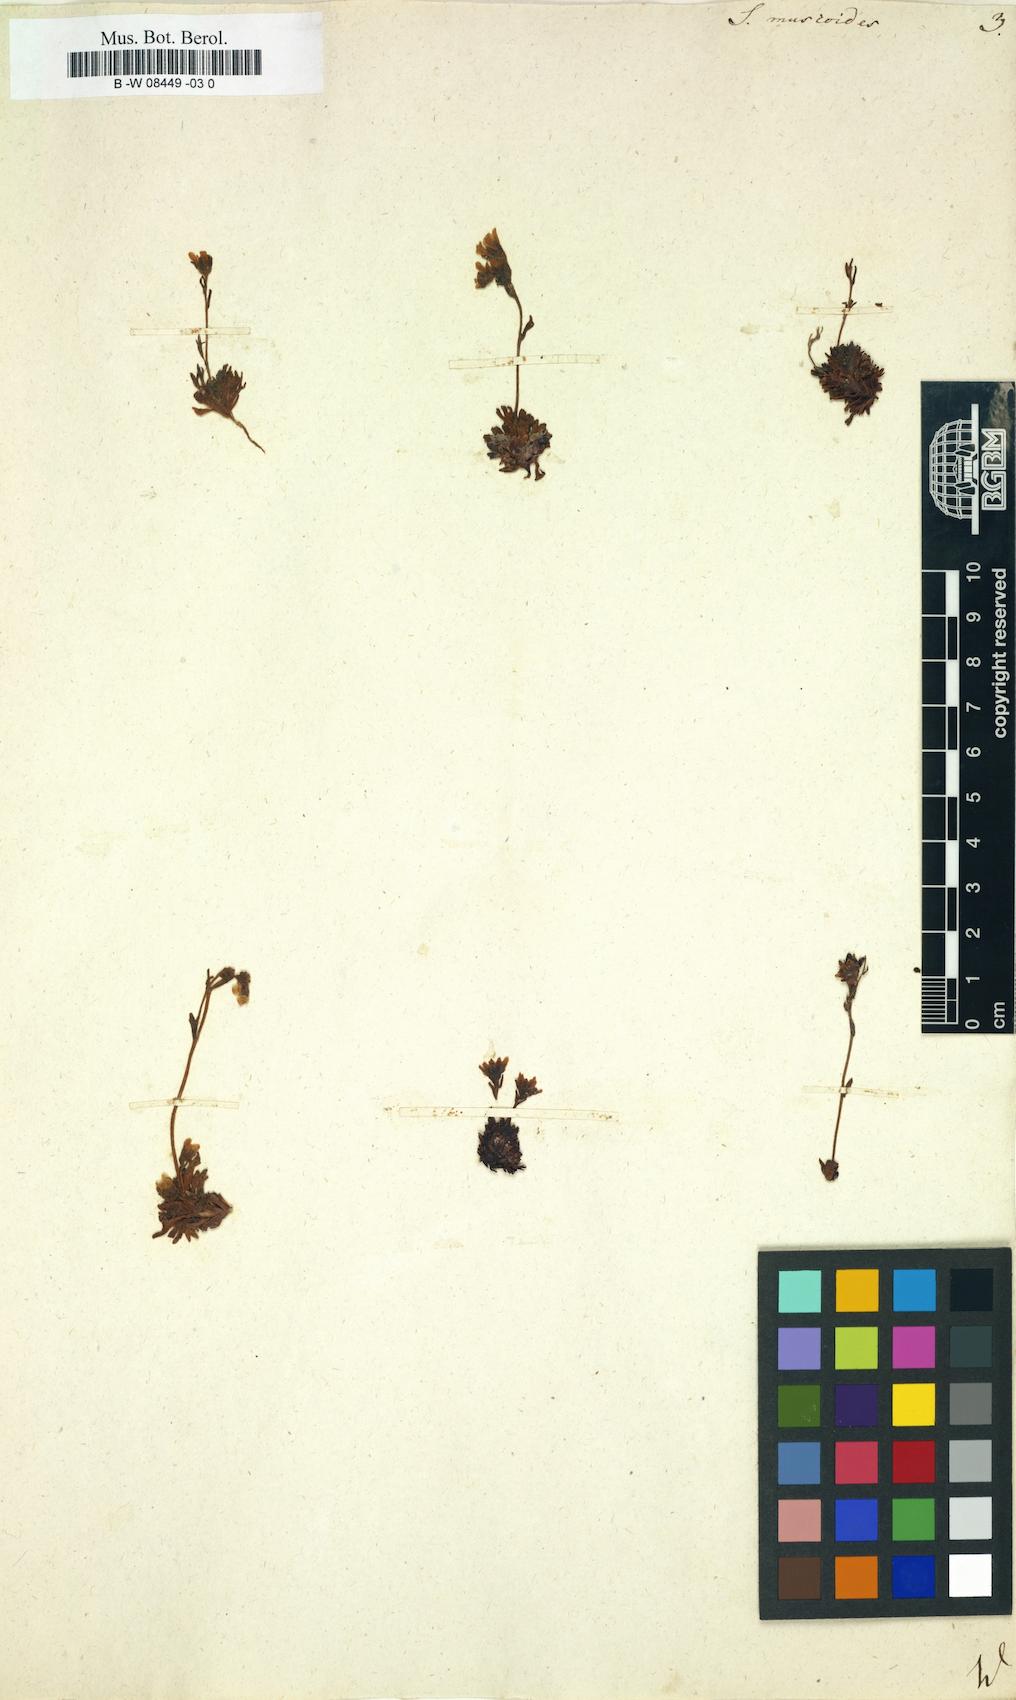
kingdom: Plantae
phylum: Tracheophyta
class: Magnoliopsida
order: Saxifragales
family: Saxifragaceae
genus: Saxifraga
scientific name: Saxifraga muscoides
